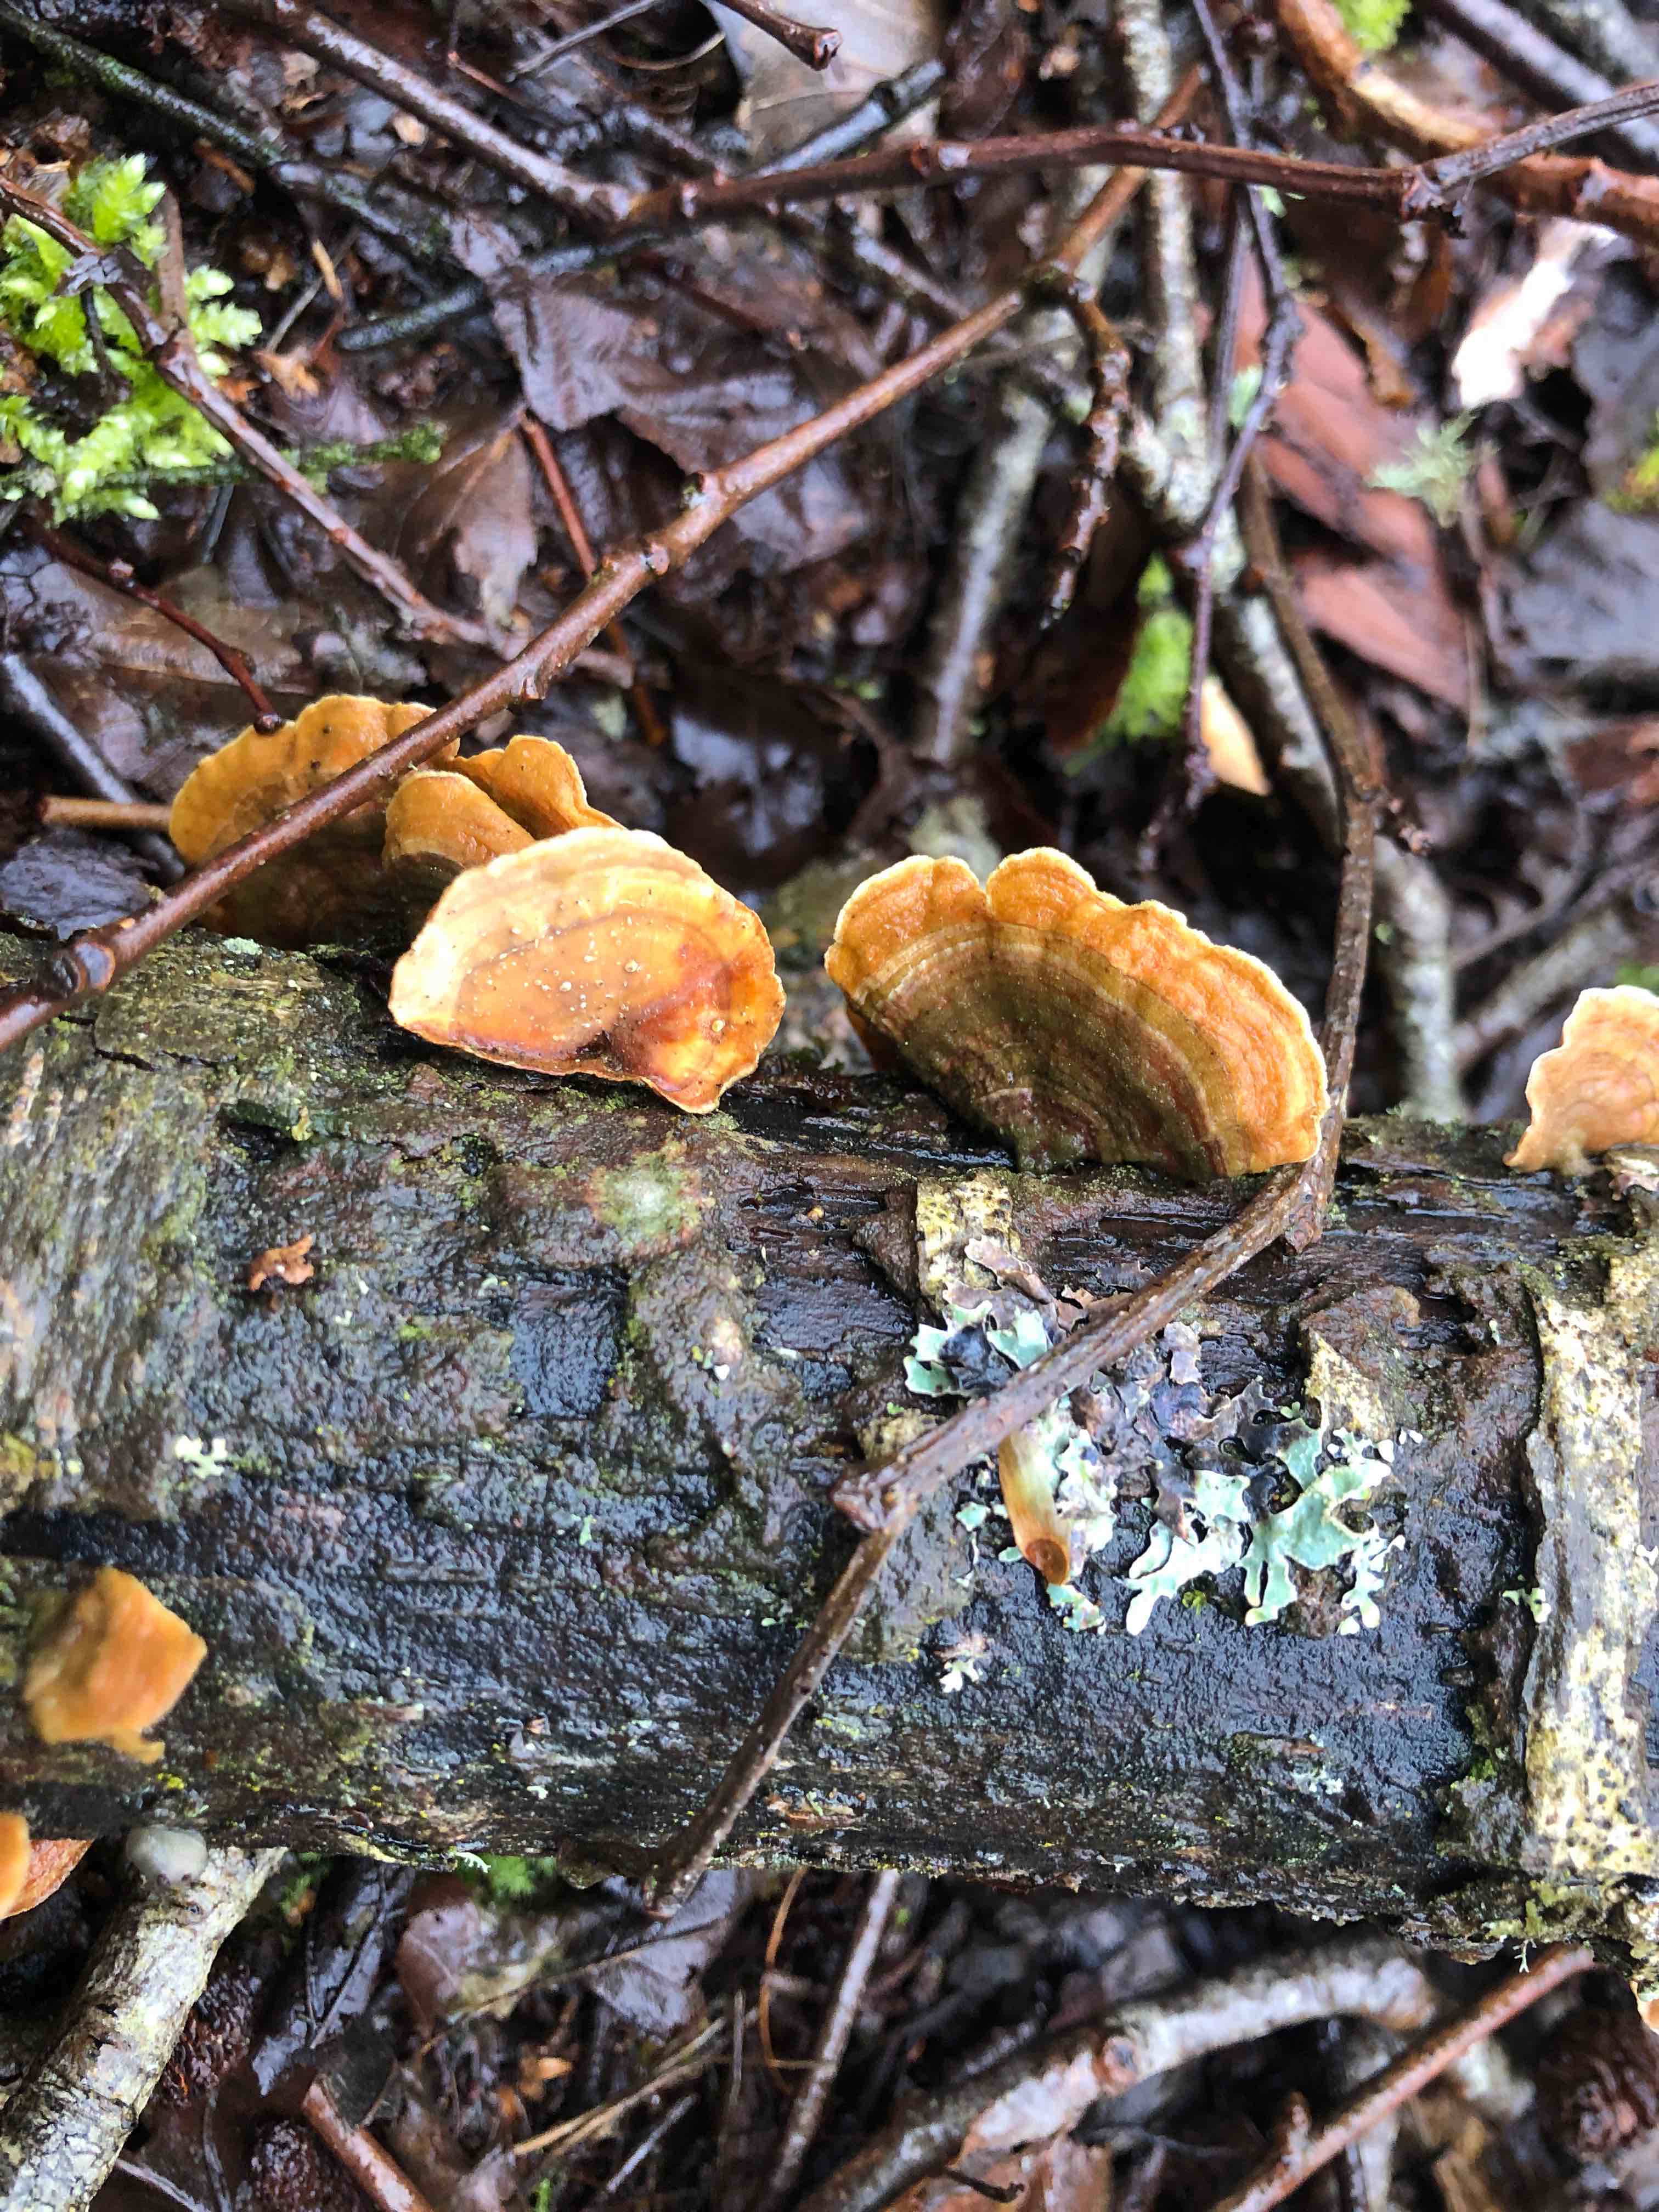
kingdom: Fungi
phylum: Basidiomycota
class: Agaricomycetes
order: Russulales
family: Stereaceae
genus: Stereum
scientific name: Stereum subtomentosum
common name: smuk lædersvamp
